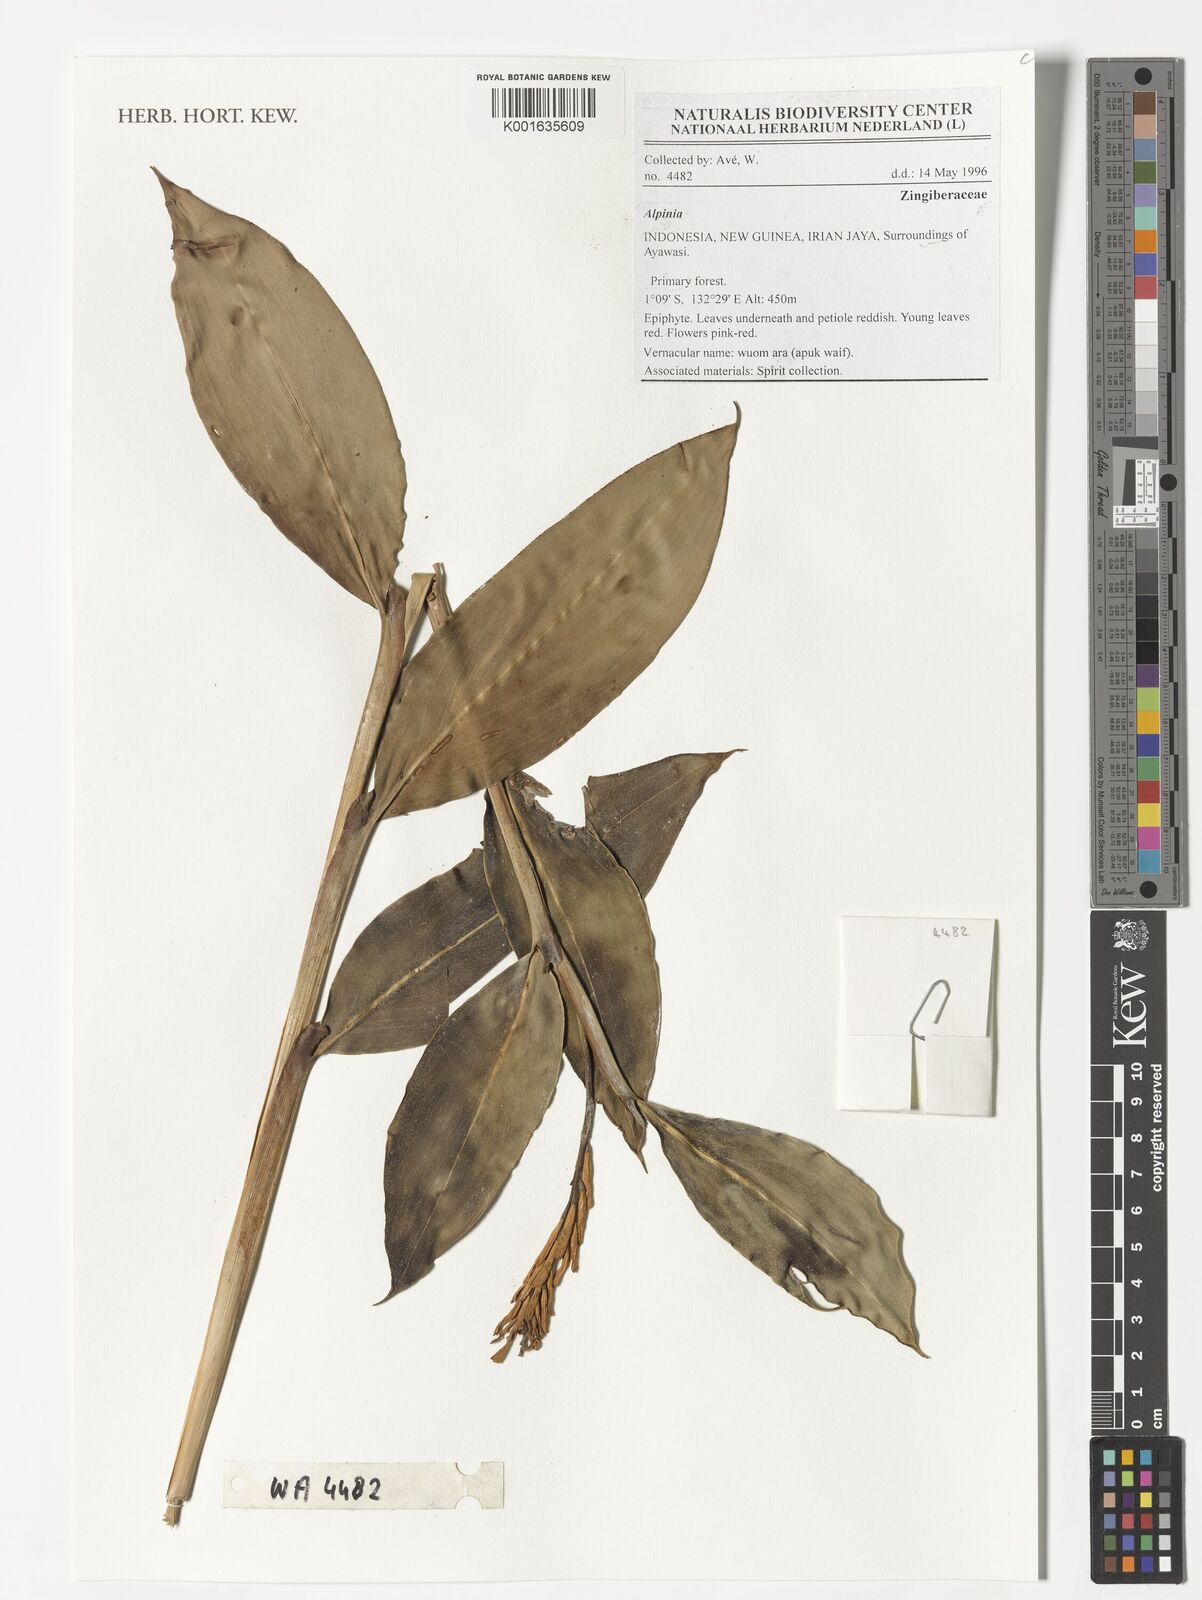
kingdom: Plantae
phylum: Tracheophyta
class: Liliopsida
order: Zingiberales
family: Zingiberaceae
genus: Alpinia
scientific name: Alpinia
